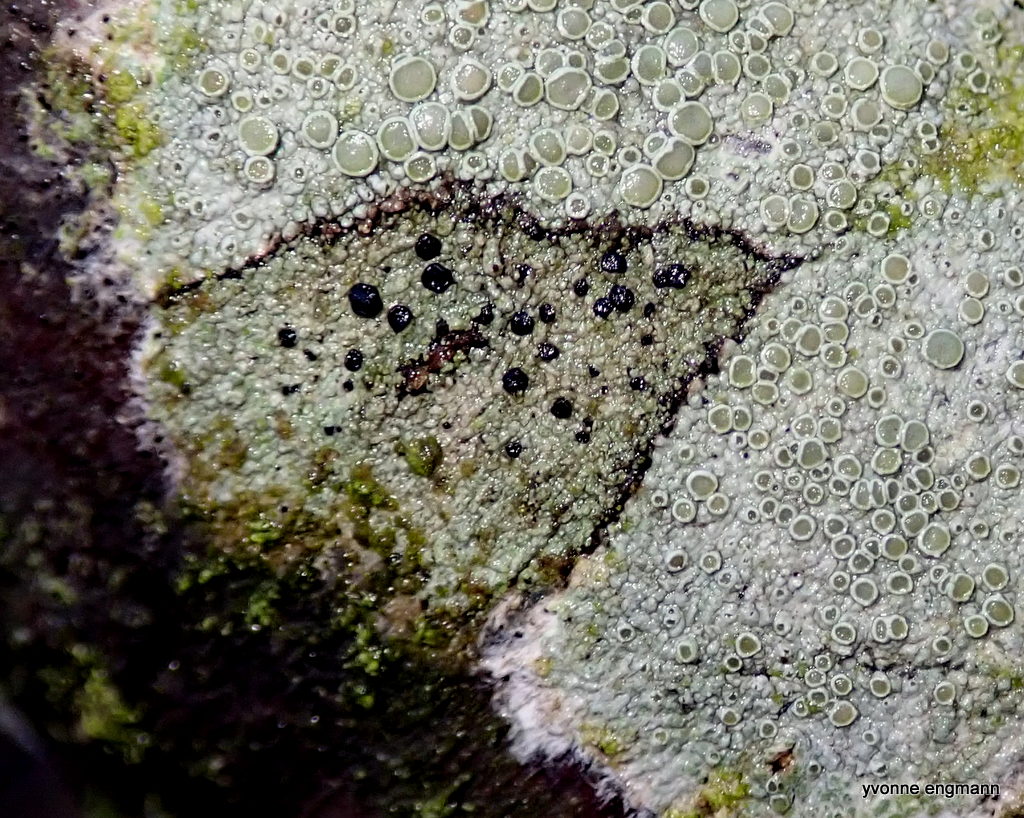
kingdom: Fungi
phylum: Ascomycota
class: Lecanoromycetes
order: Lecanorales
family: Lecanoraceae
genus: Lecidella
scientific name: Lecidella elaeochroma
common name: grågrøn skivelav
